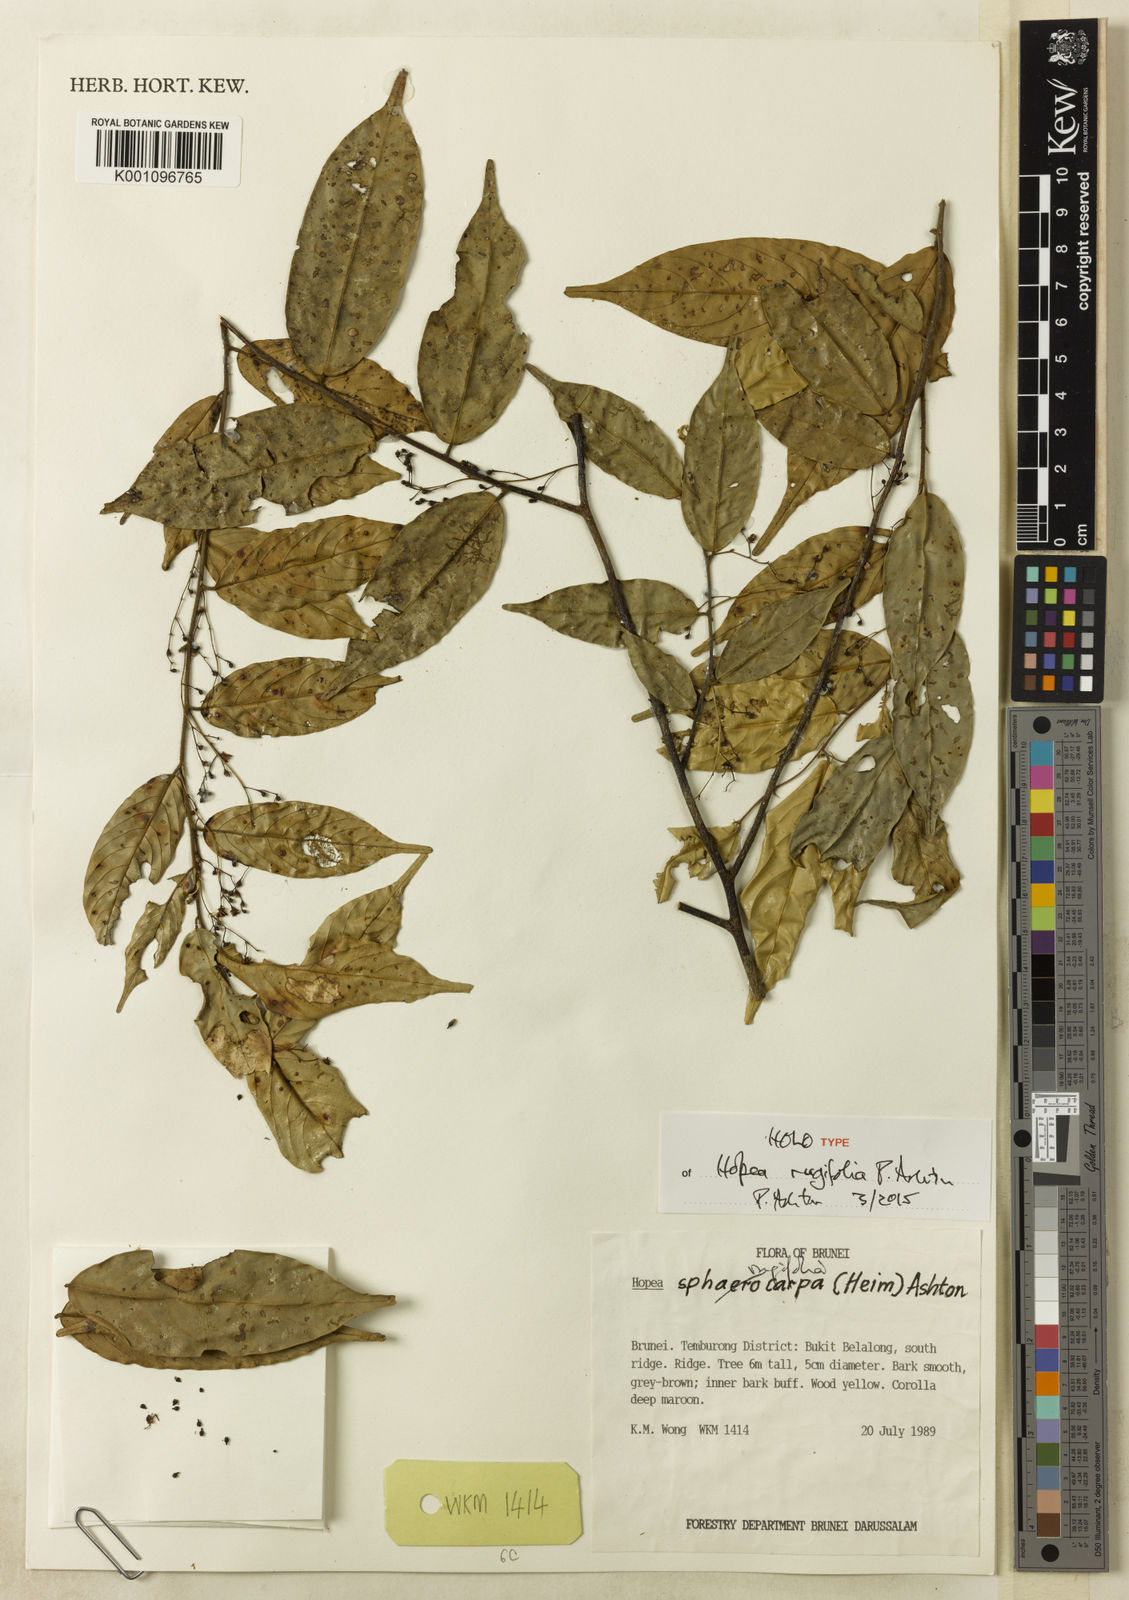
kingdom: Plantae
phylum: Tracheophyta
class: Magnoliopsida
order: Malvales
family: Dipterocarpaceae
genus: Hopea
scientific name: Hopea rugifolia
